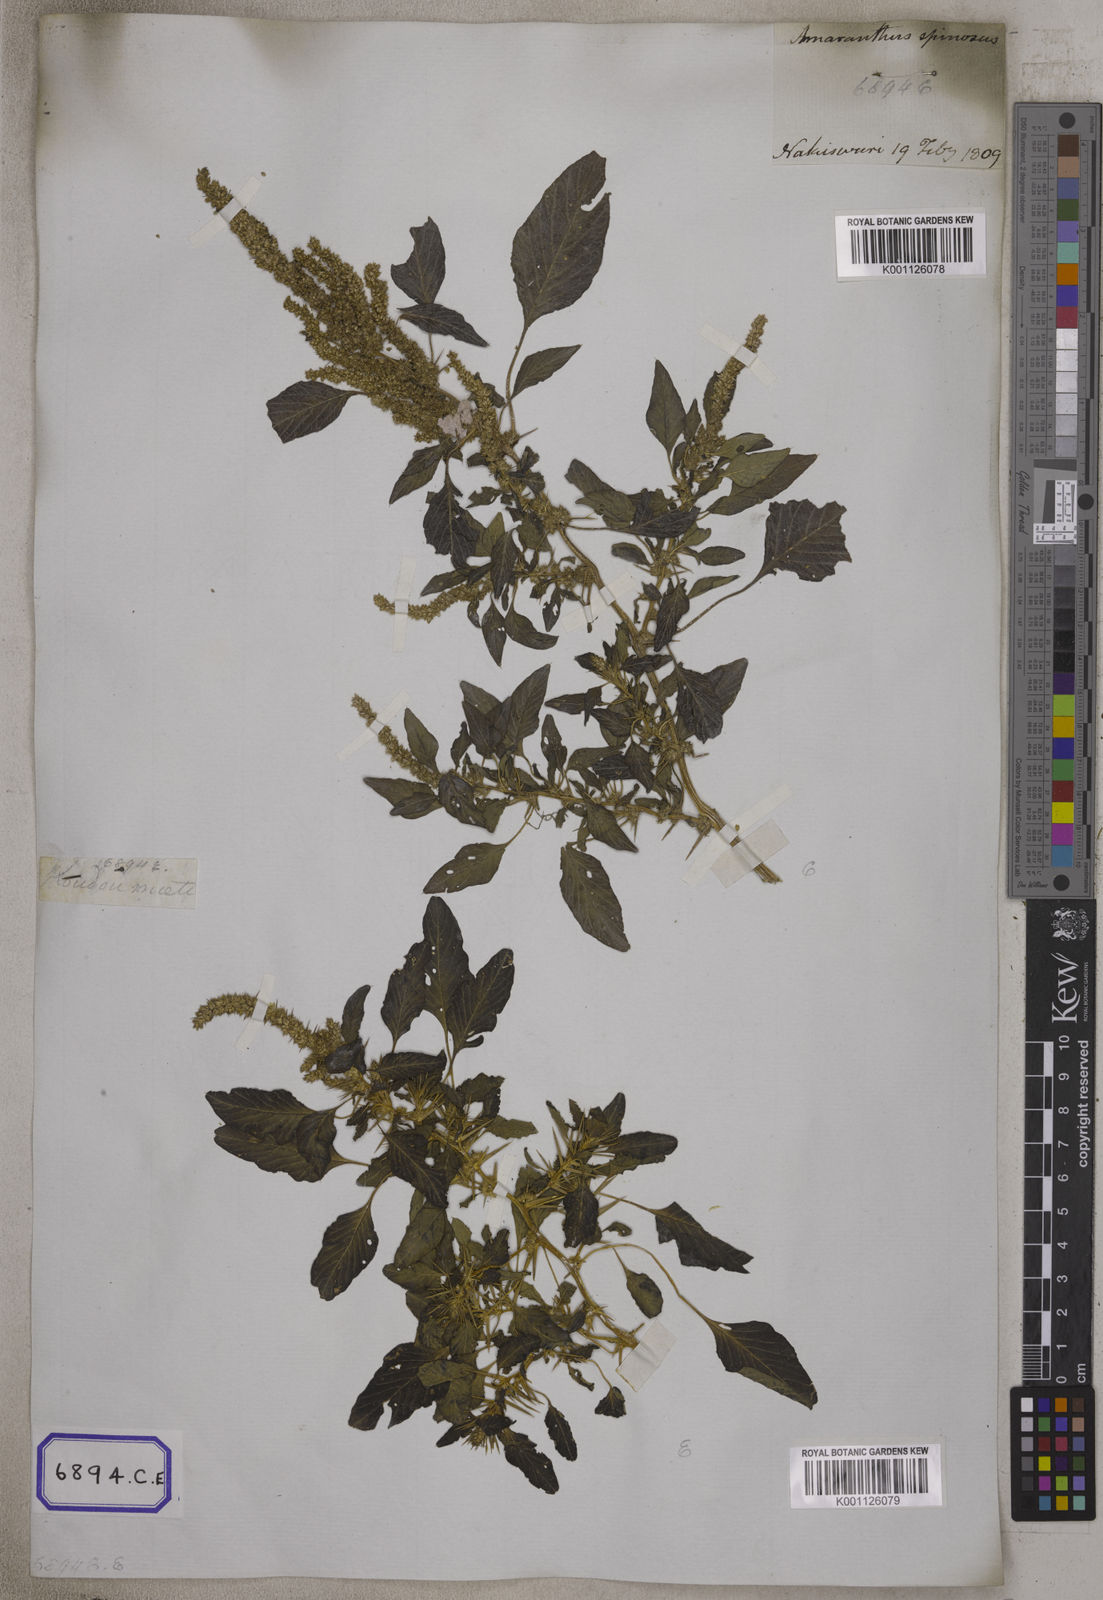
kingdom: Plantae
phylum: Tracheophyta
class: Magnoliopsida
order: Caryophyllales
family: Amaranthaceae
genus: Amaranthus
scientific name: Amaranthus spinosus
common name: Spiny amaranth
